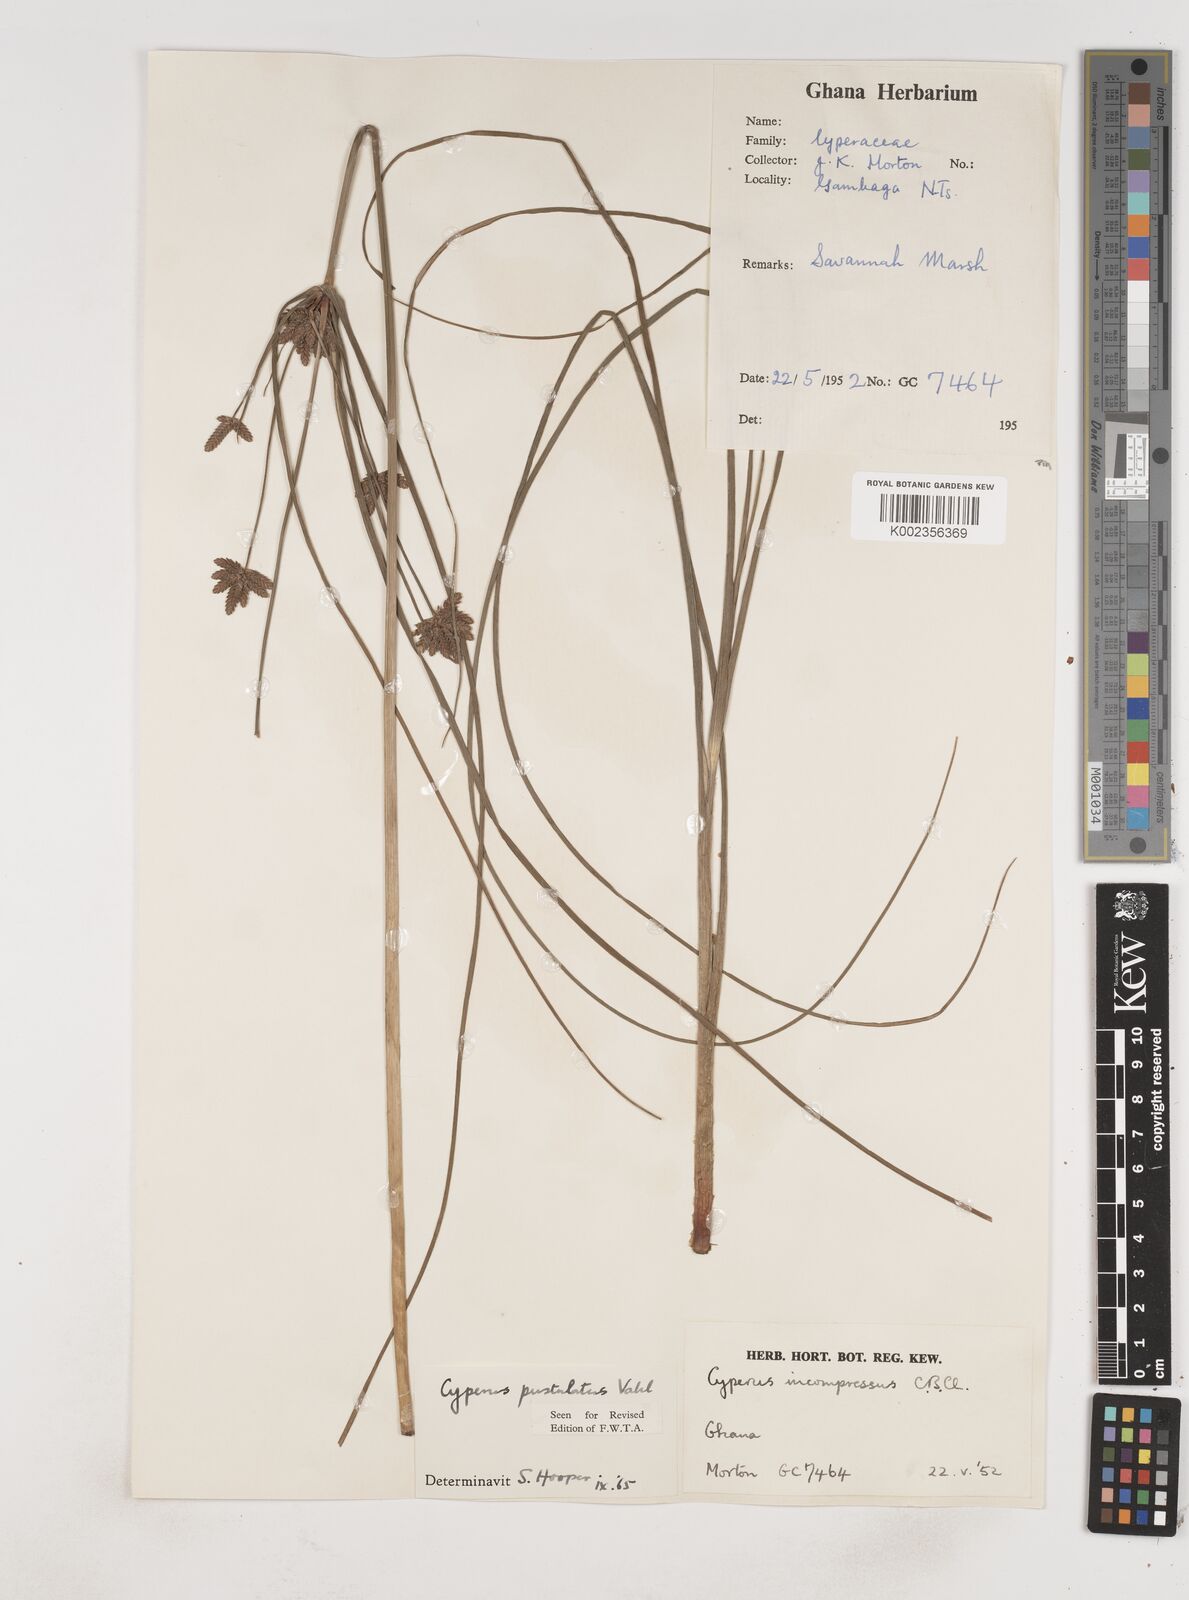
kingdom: Plantae
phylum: Tracheophyta
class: Liliopsida
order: Poales
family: Cyperaceae
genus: Cyperus
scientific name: Cyperus pustulatus
